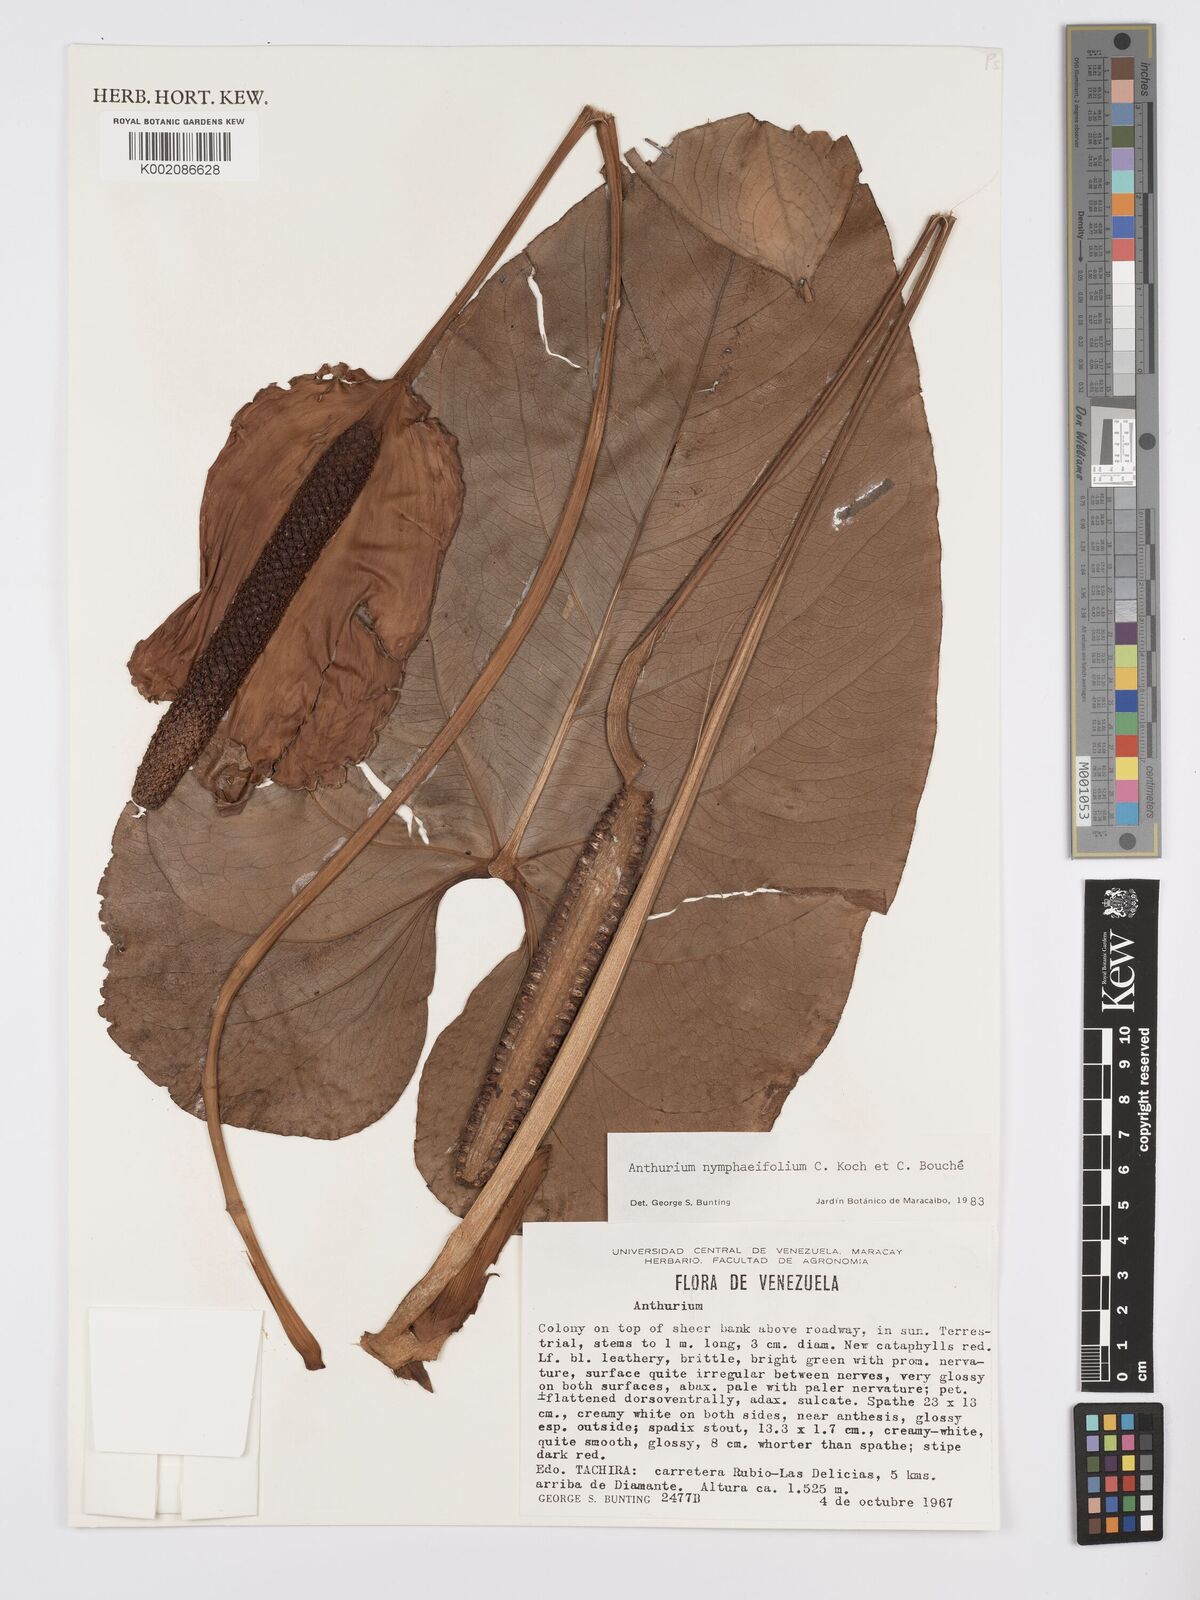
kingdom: Plantae
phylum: Tracheophyta
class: Liliopsida
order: Alismatales
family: Araceae
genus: Anthurium
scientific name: Anthurium nymphaeifolium
